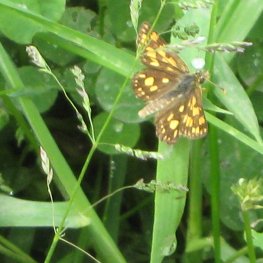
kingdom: Animalia
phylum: Arthropoda
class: Insecta
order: Lepidoptera
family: Hesperiidae
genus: Carterocephalus
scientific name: Carterocephalus palaemon
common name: Chequered Skipper
